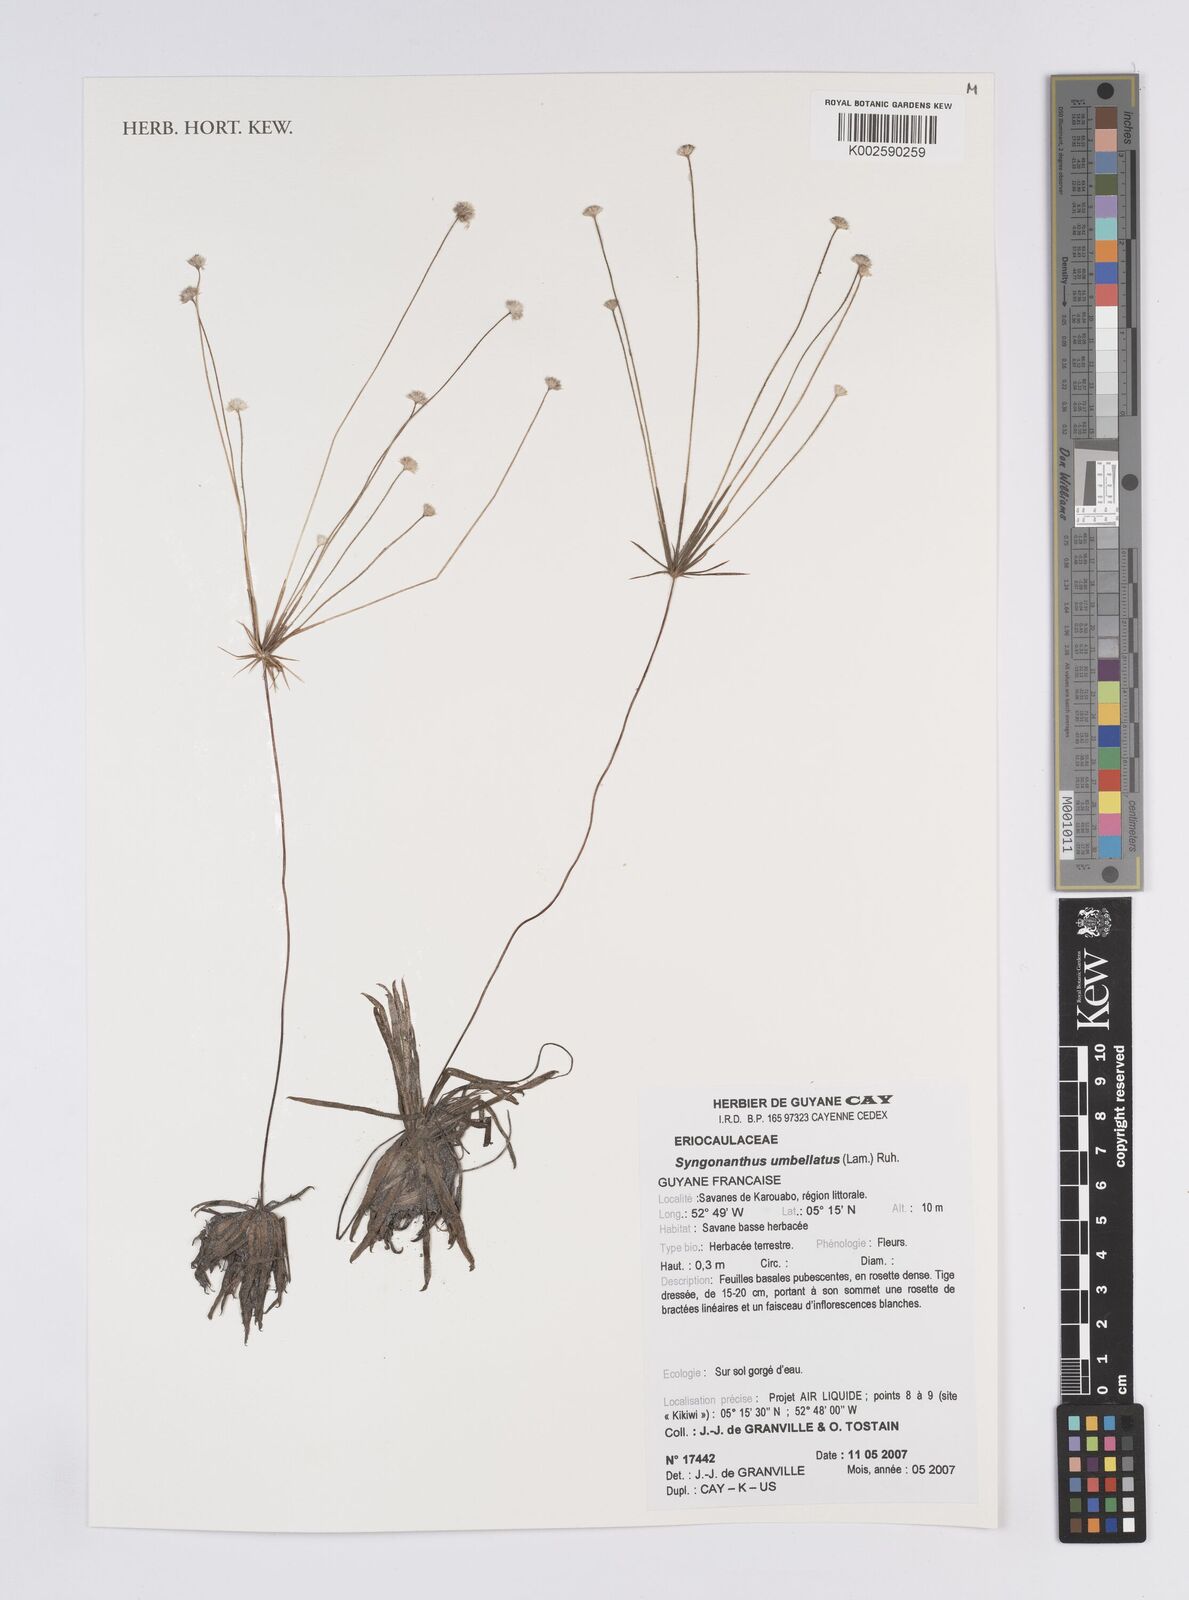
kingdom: Plantae
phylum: Tracheophyta
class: Liliopsida
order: Poales
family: Eriocaulaceae
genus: Syngonanthus
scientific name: Syngonanthus umbellatus
